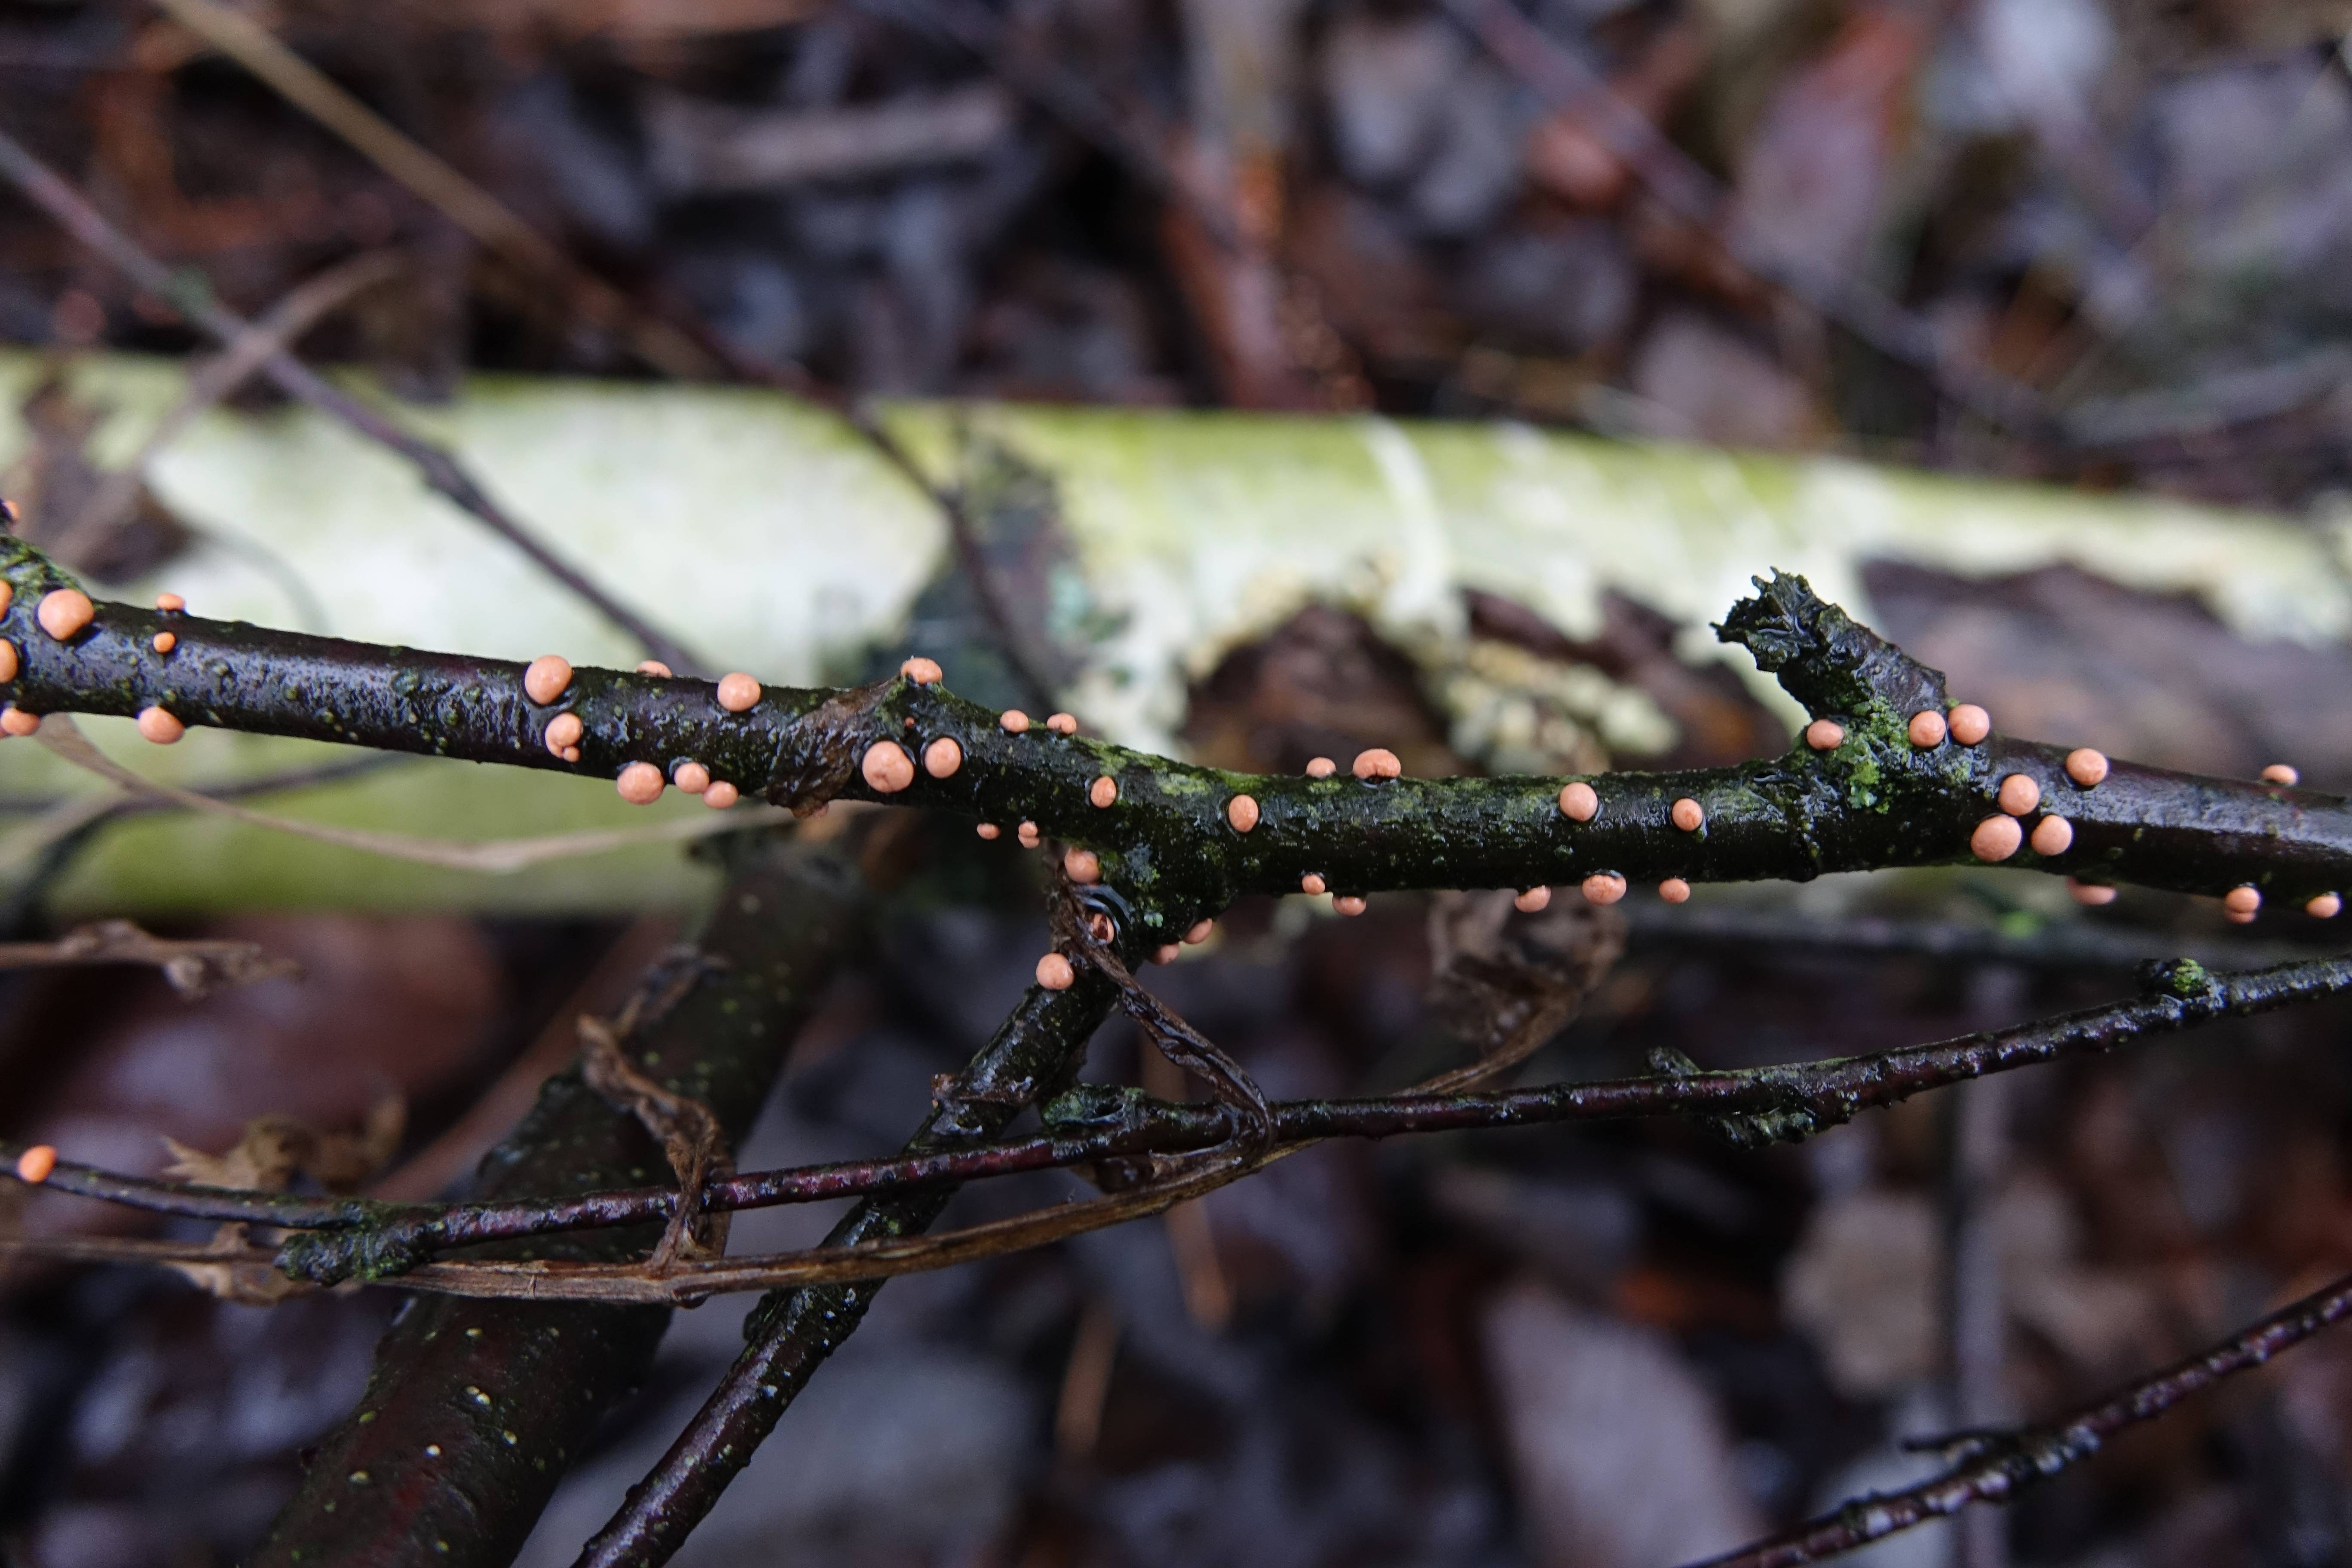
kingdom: Fungi
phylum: Ascomycota
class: Sordariomycetes
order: Hypocreales
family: Nectriaceae
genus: Nectria
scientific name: Nectria cinnabarina
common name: Coral spot
